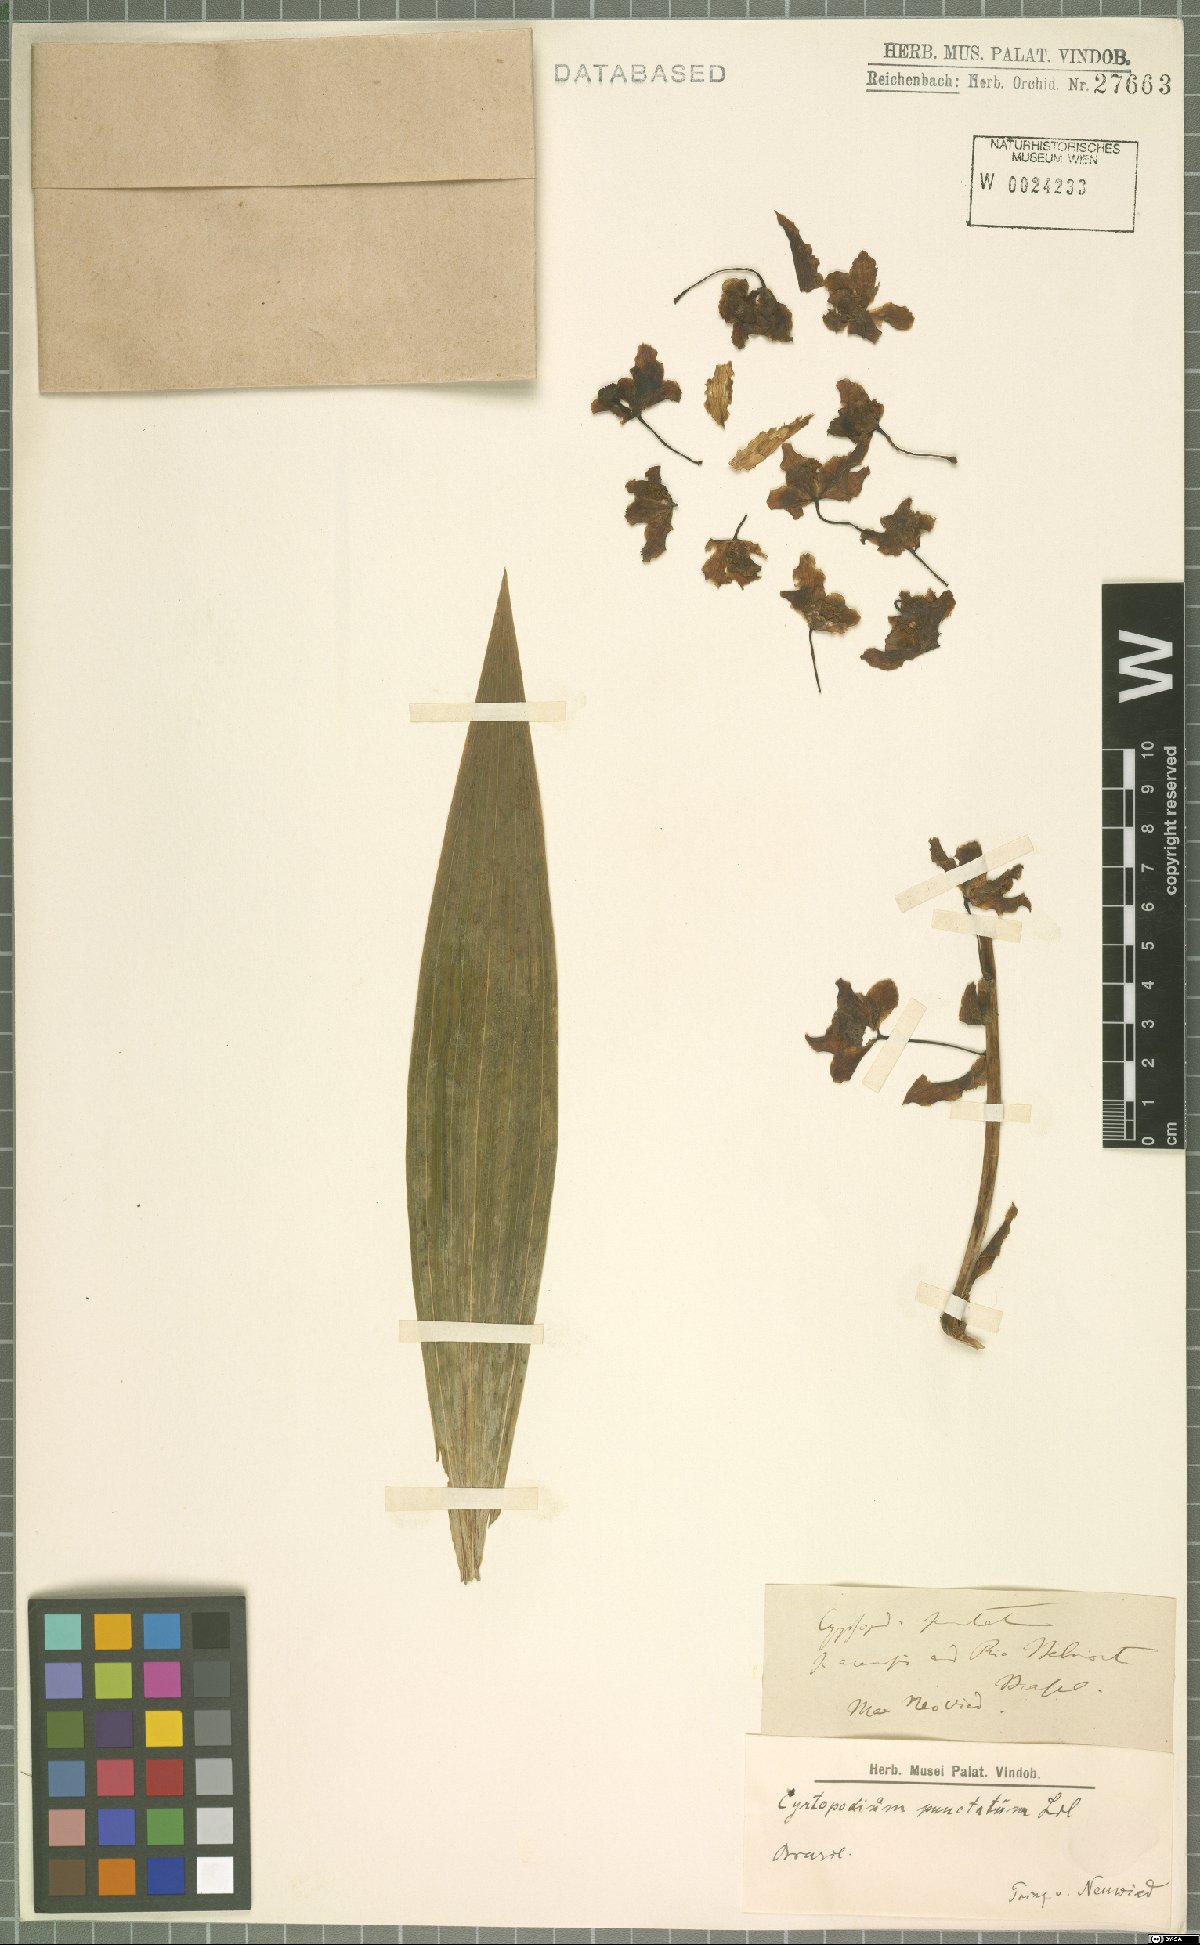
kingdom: Plantae
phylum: Tracheophyta
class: Liliopsida
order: Asparagales
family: Orchidaceae
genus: Cyrtopodium
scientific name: Cyrtopodium punctatum
